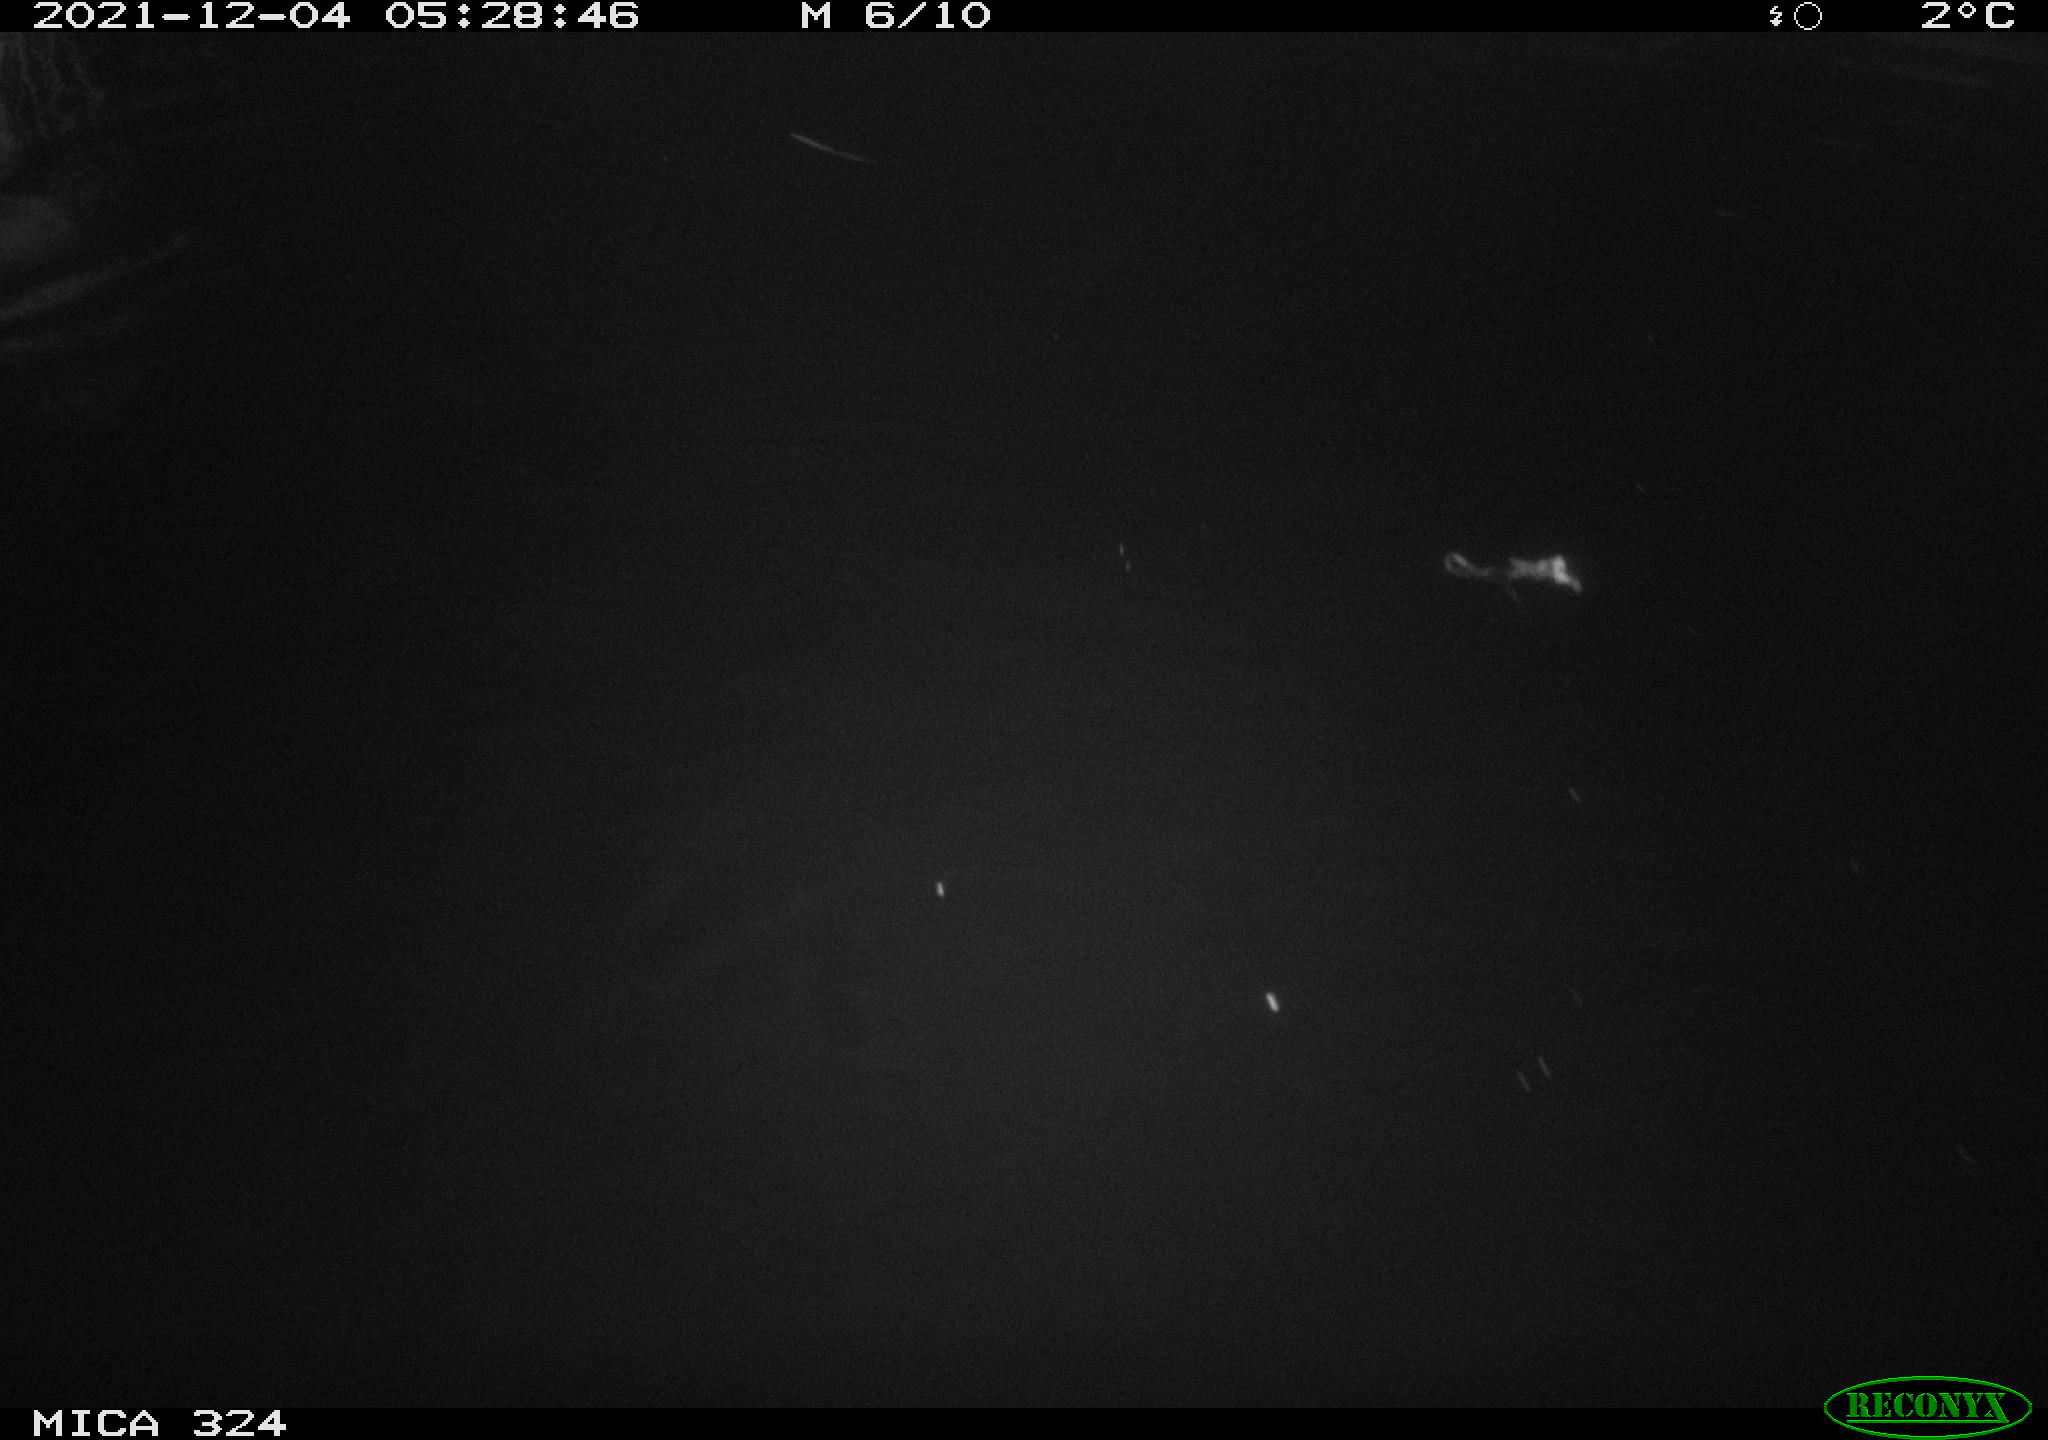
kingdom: Animalia
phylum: Chordata
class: Mammalia
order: Rodentia
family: Cricetidae
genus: Ondatra
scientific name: Ondatra zibethicus
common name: Muskrat
